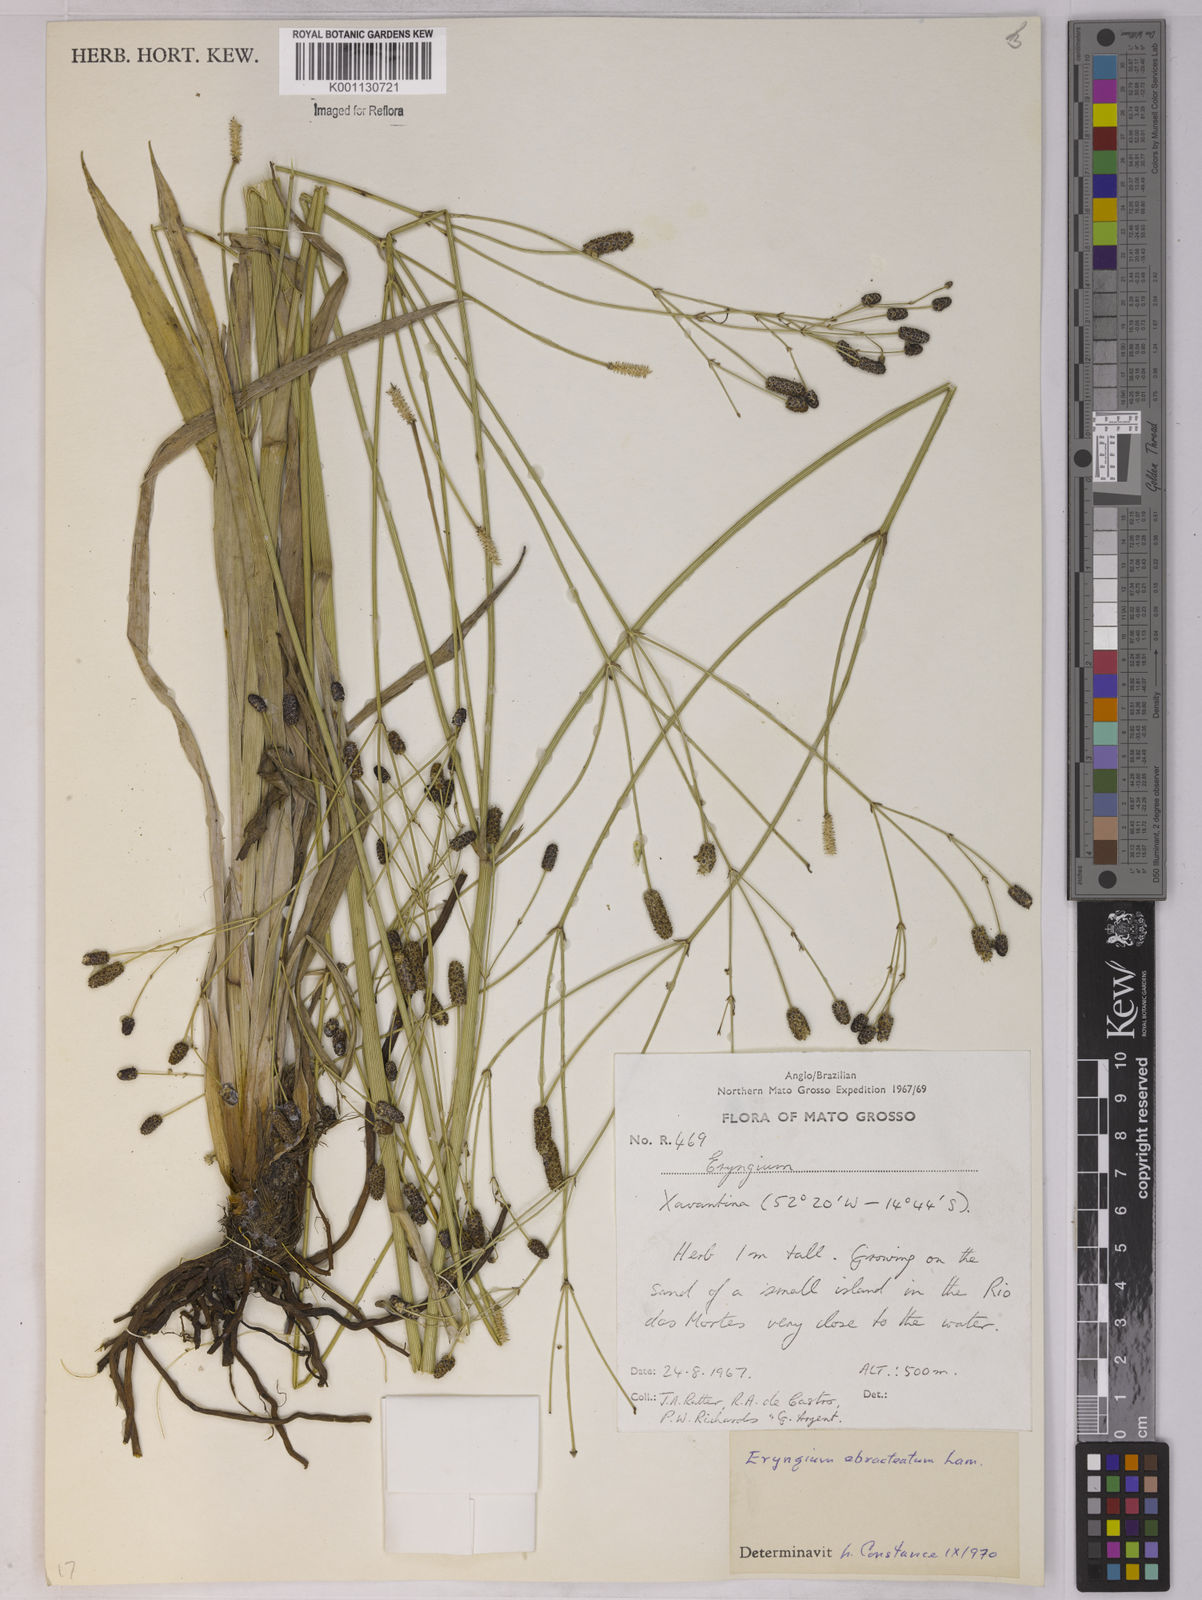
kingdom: Plantae
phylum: Tracheophyta
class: Magnoliopsida
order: Apiales
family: Apiaceae
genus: Eryngium
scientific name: Eryngium
